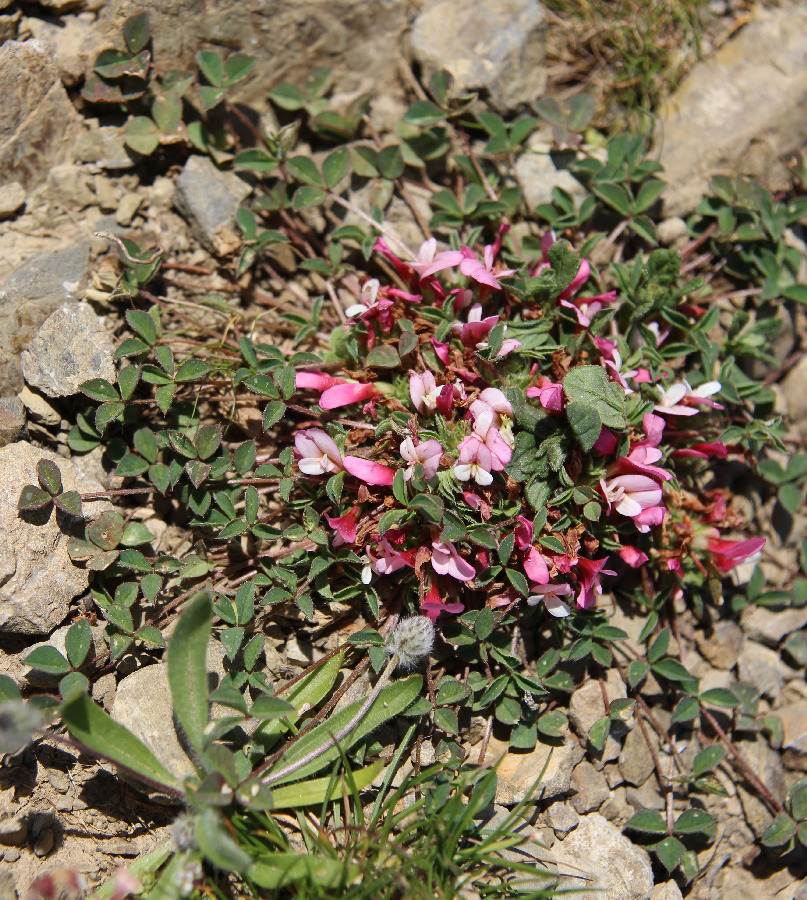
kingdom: Plantae
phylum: Tracheophyta
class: Magnoliopsida
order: Fabales
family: Fabaceae
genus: Trifolium
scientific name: Trifolium uniflorum
